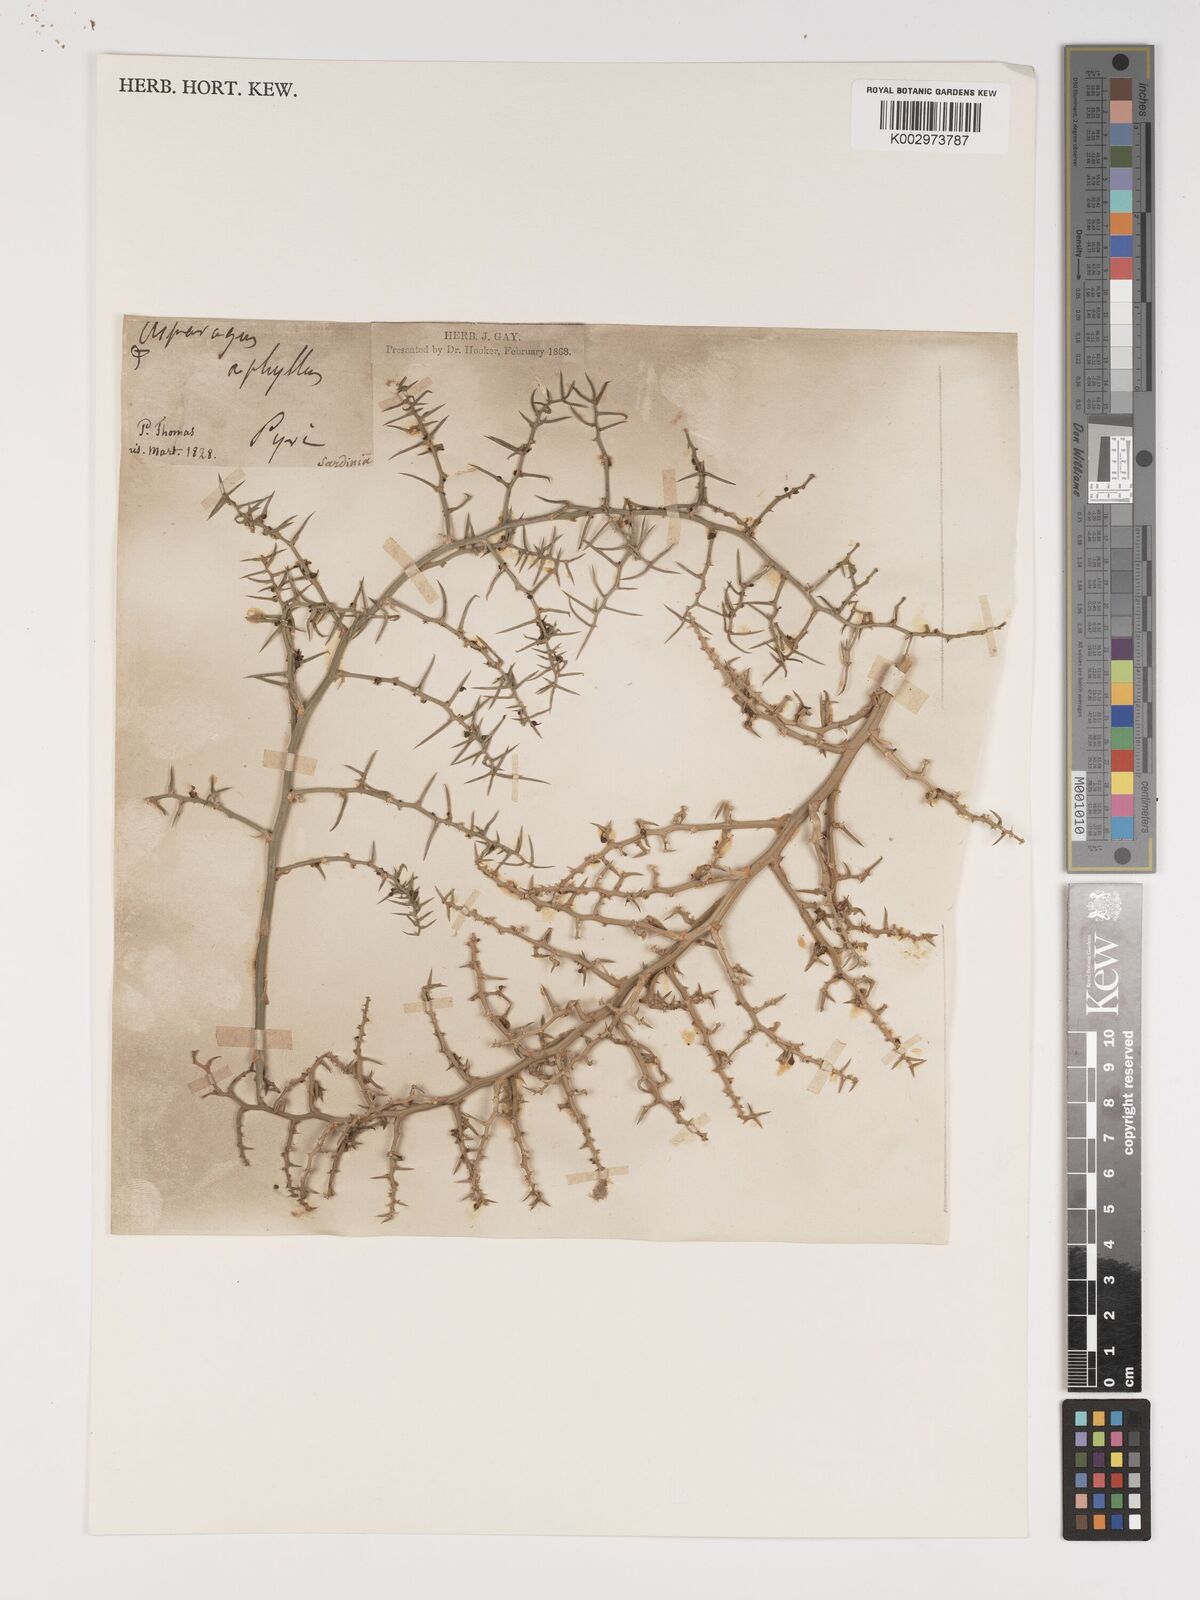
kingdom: Plantae
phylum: Tracheophyta
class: Liliopsida
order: Asparagales
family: Asparagaceae
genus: Asparagus
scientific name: Asparagus horridus
